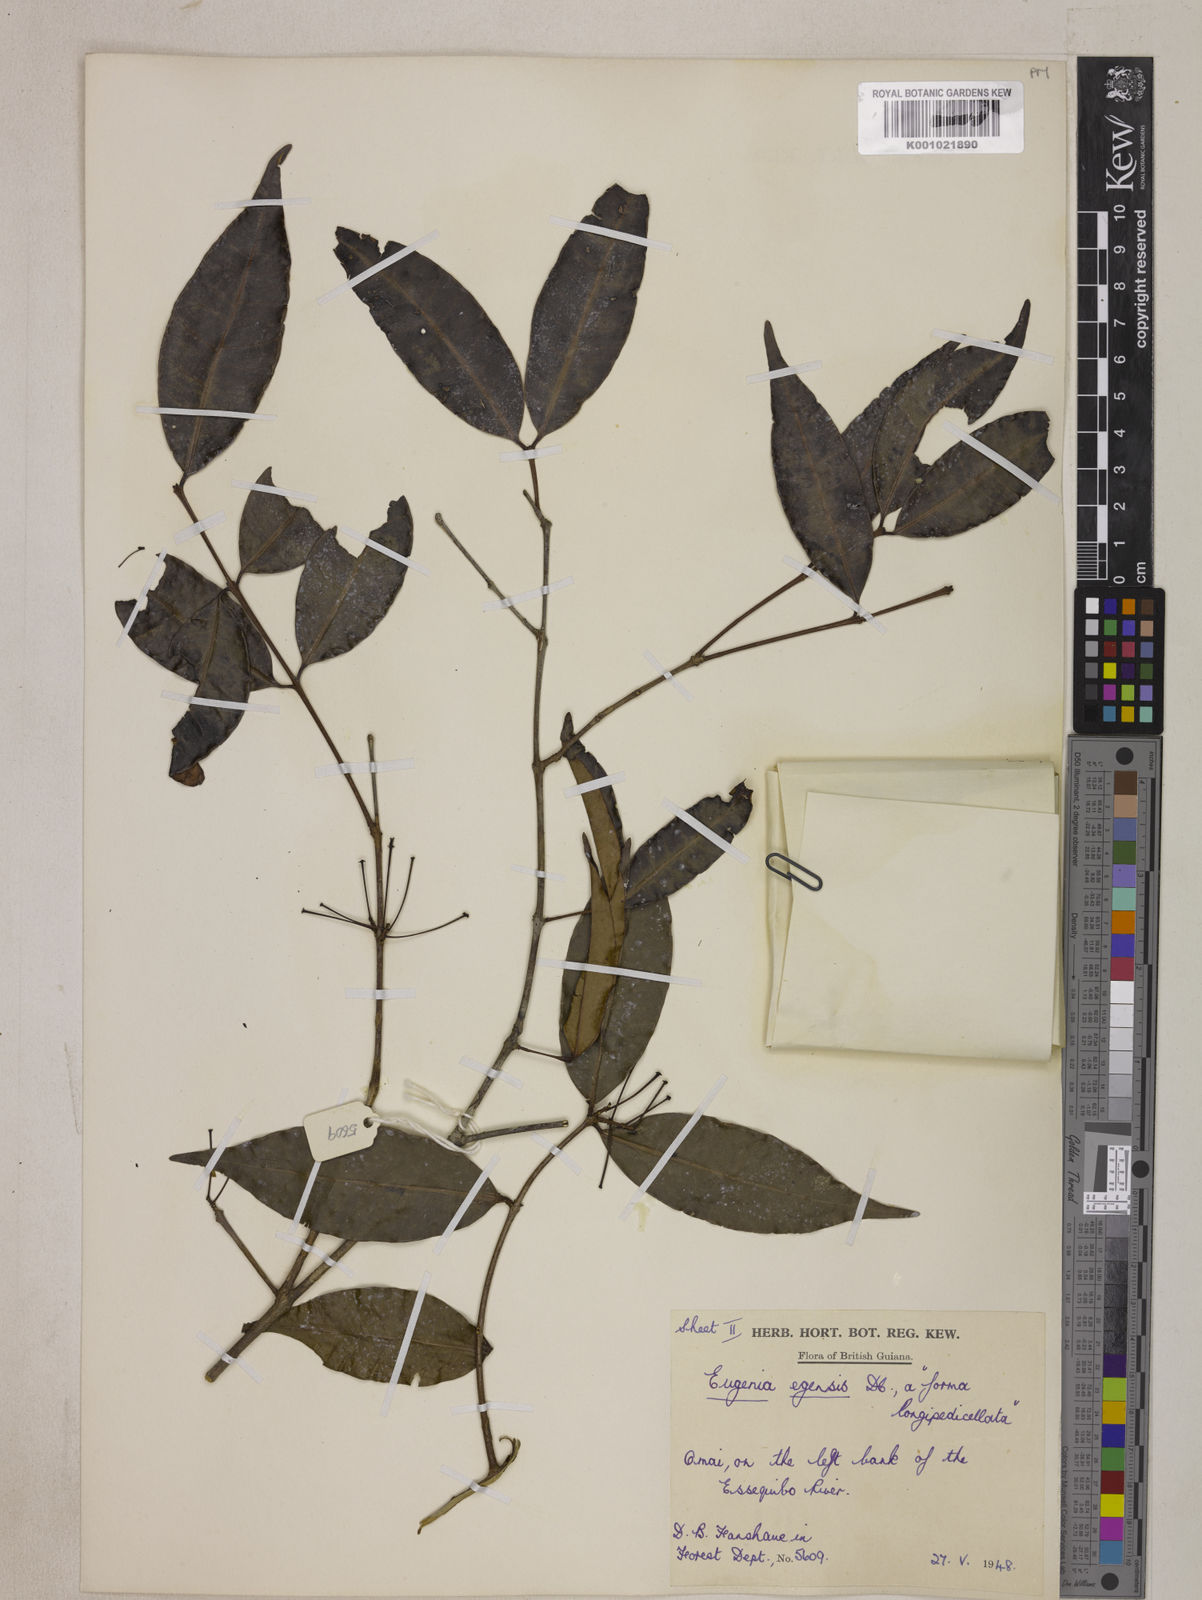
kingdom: Plantae
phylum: Tracheophyta
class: Magnoliopsida
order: Myrtales
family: Myrtaceae
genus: Eugenia
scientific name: Eugenia egensis
